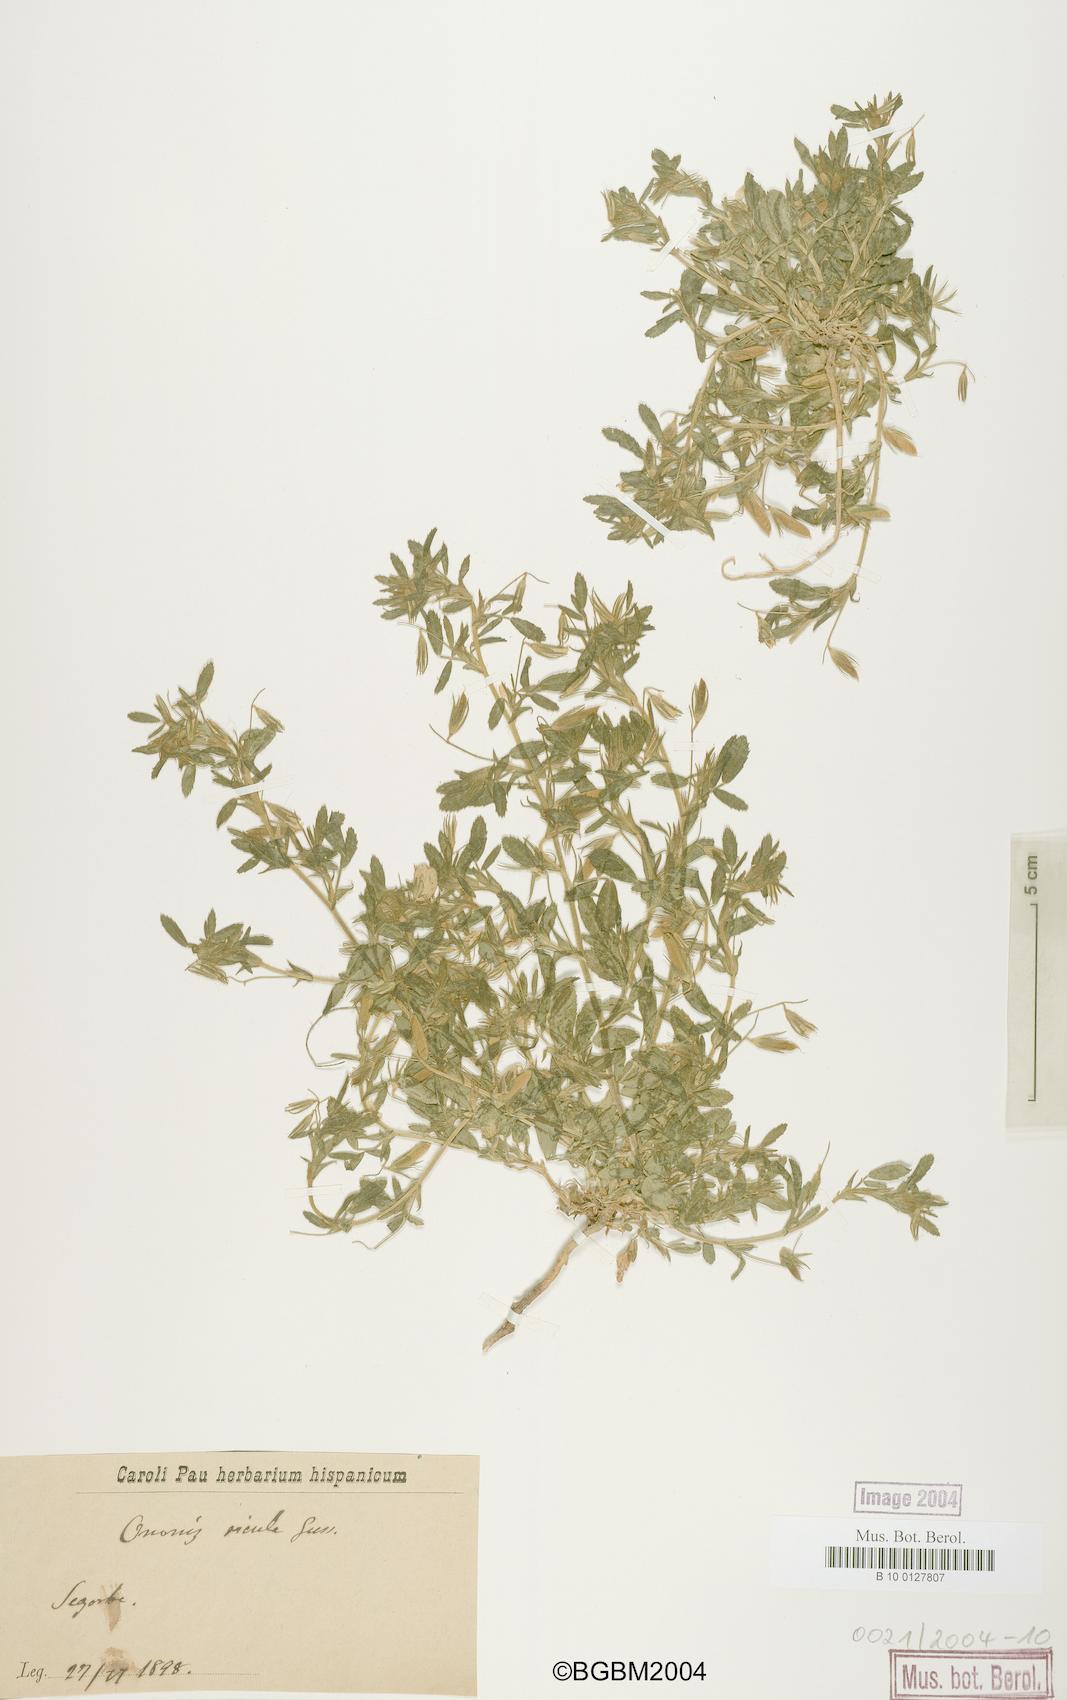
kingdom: Plantae
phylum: Tracheophyta
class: Magnoliopsida
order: Fabales
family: Fabaceae
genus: Ononis
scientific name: Ononis sicula
